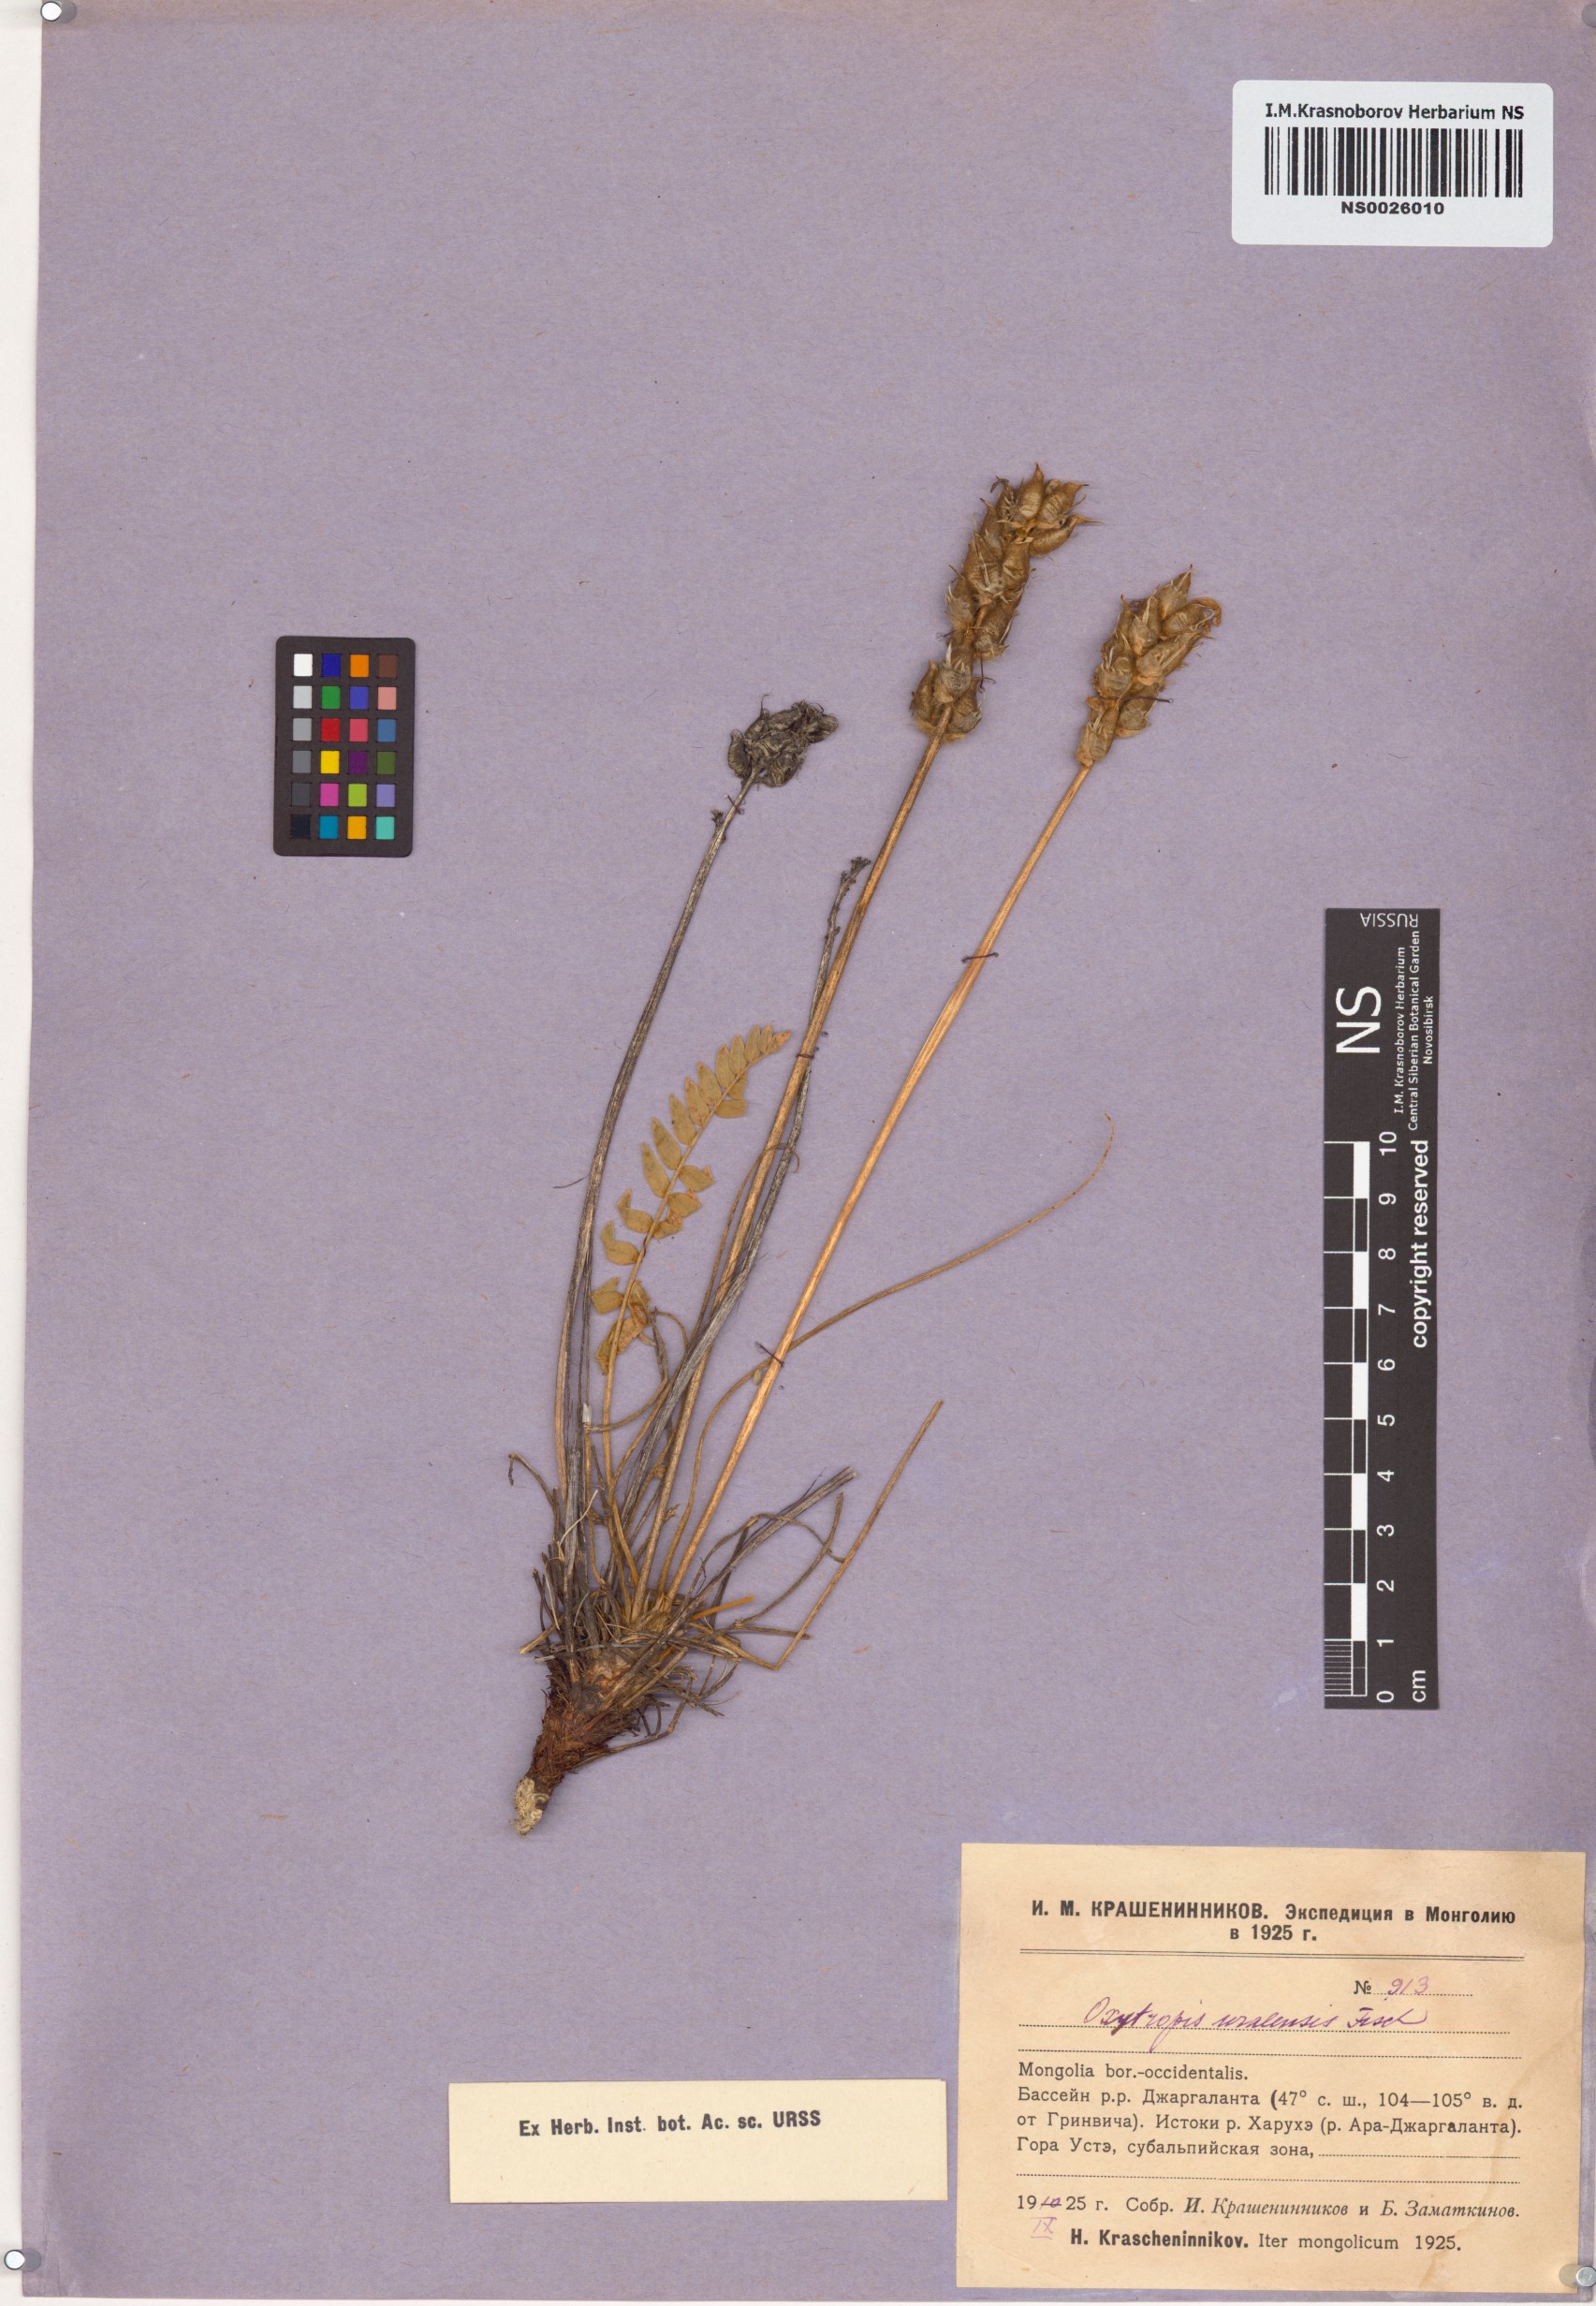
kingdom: Plantae
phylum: Tracheophyta
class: Magnoliopsida
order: Fabales
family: Fabaceae
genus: Oxytropis
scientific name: Oxytropis uralensis
